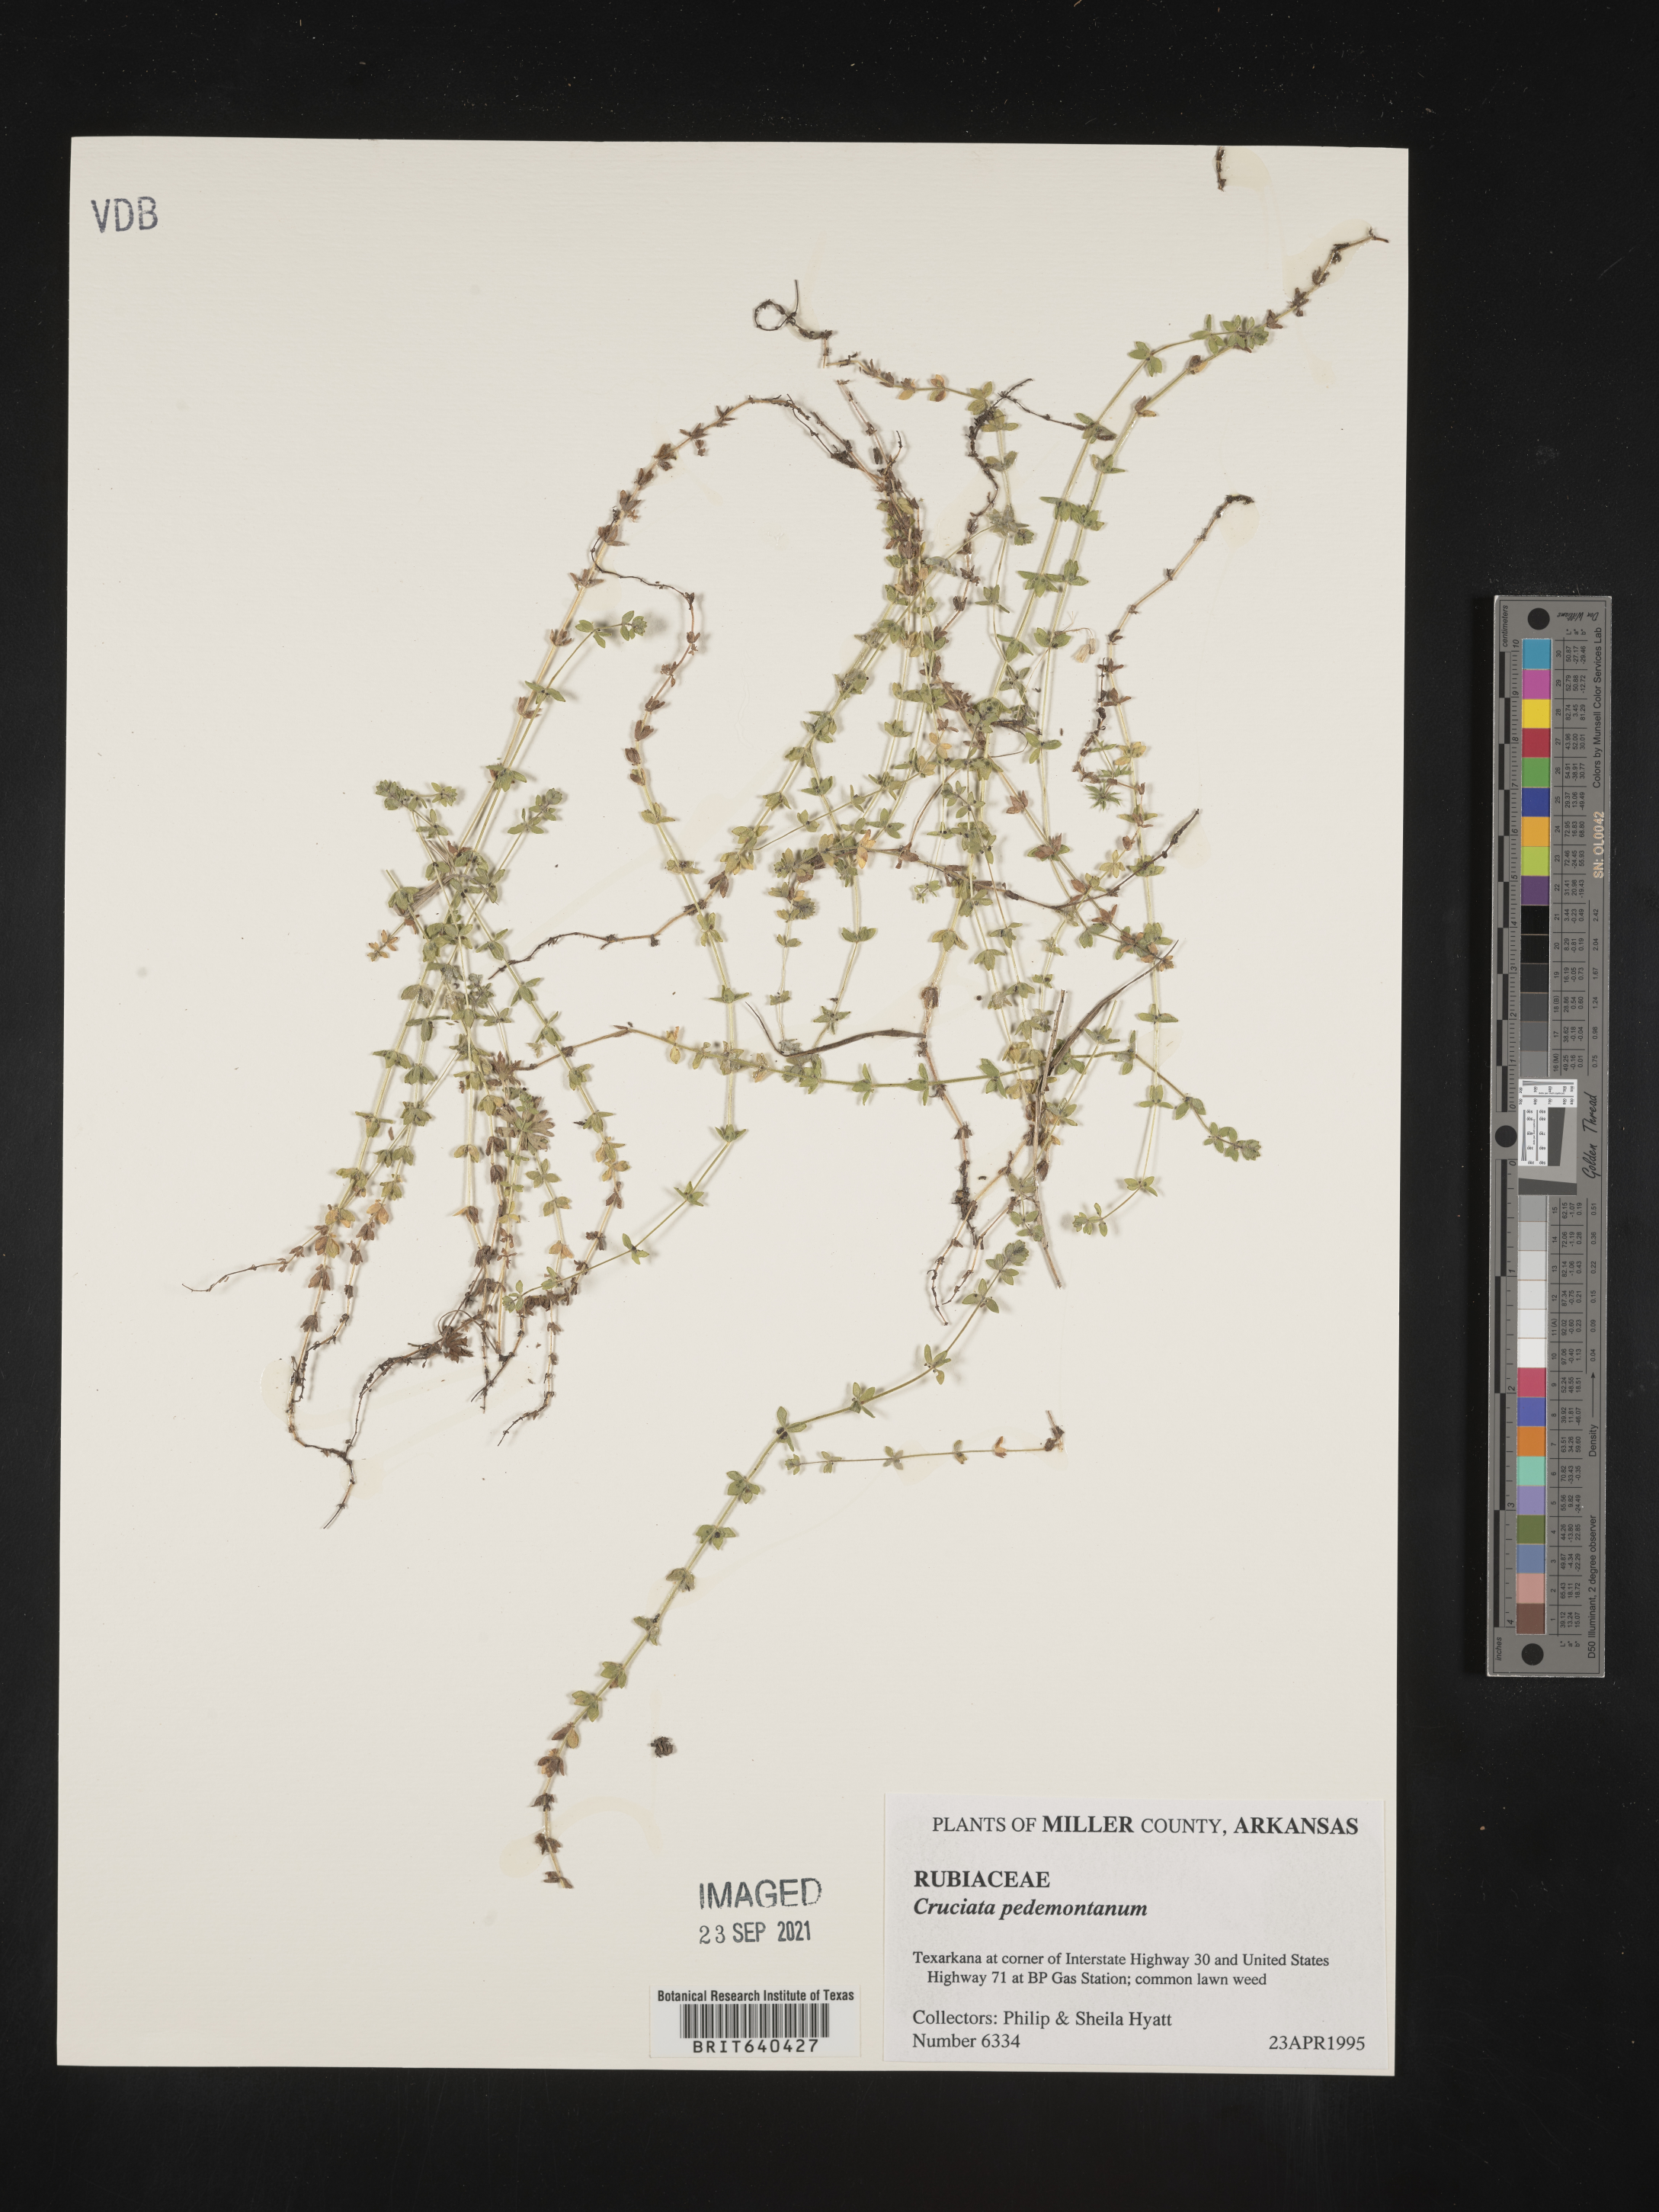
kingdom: Plantae
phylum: Tracheophyta
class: Magnoliopsida
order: Gentianales
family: Rubiaceae
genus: Cruciata
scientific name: Cruciata
